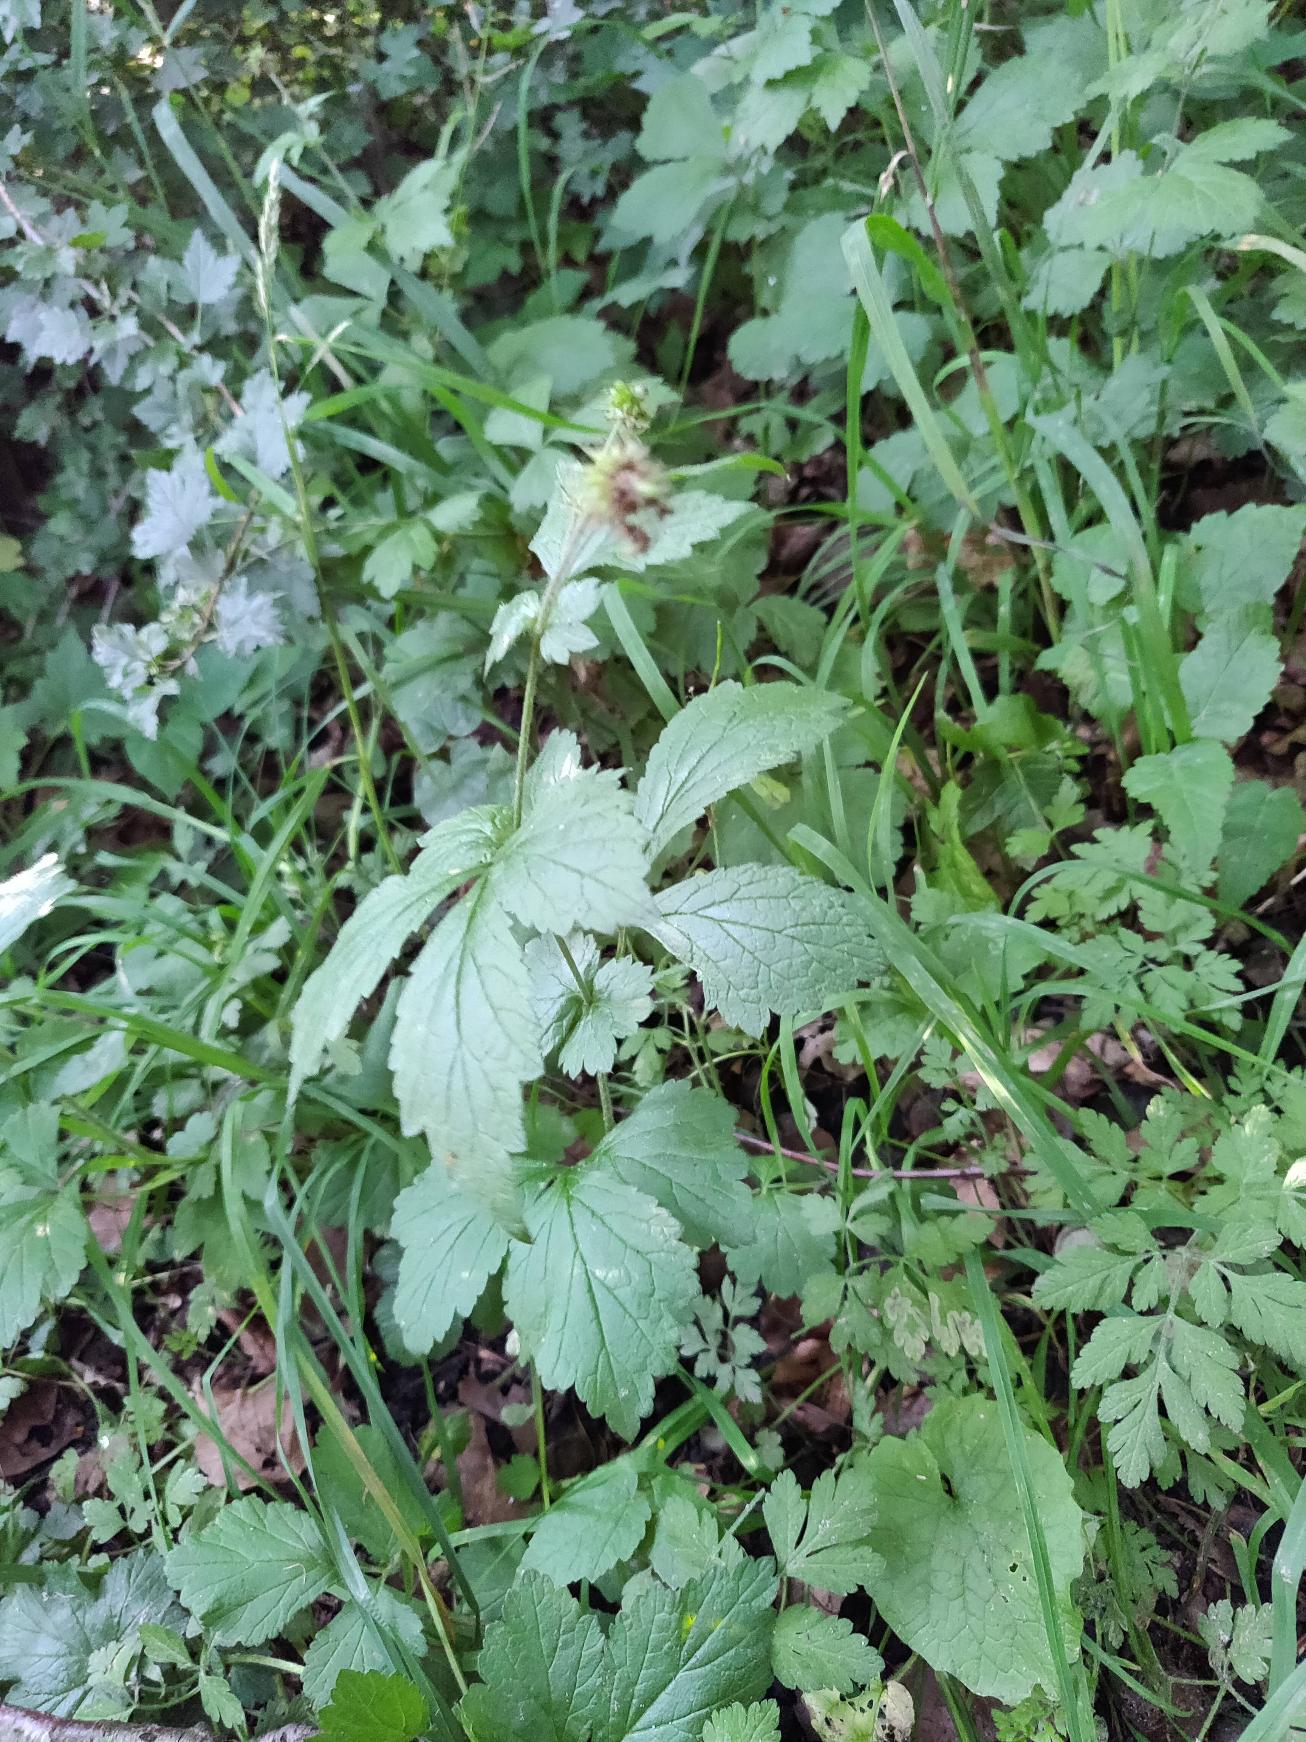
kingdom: Plantae
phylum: Tracheophyta
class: Magnoliopsida
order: Rosales
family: Rosaceae
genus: Geum
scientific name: Geum urbanum
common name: Feber-nellikerod
